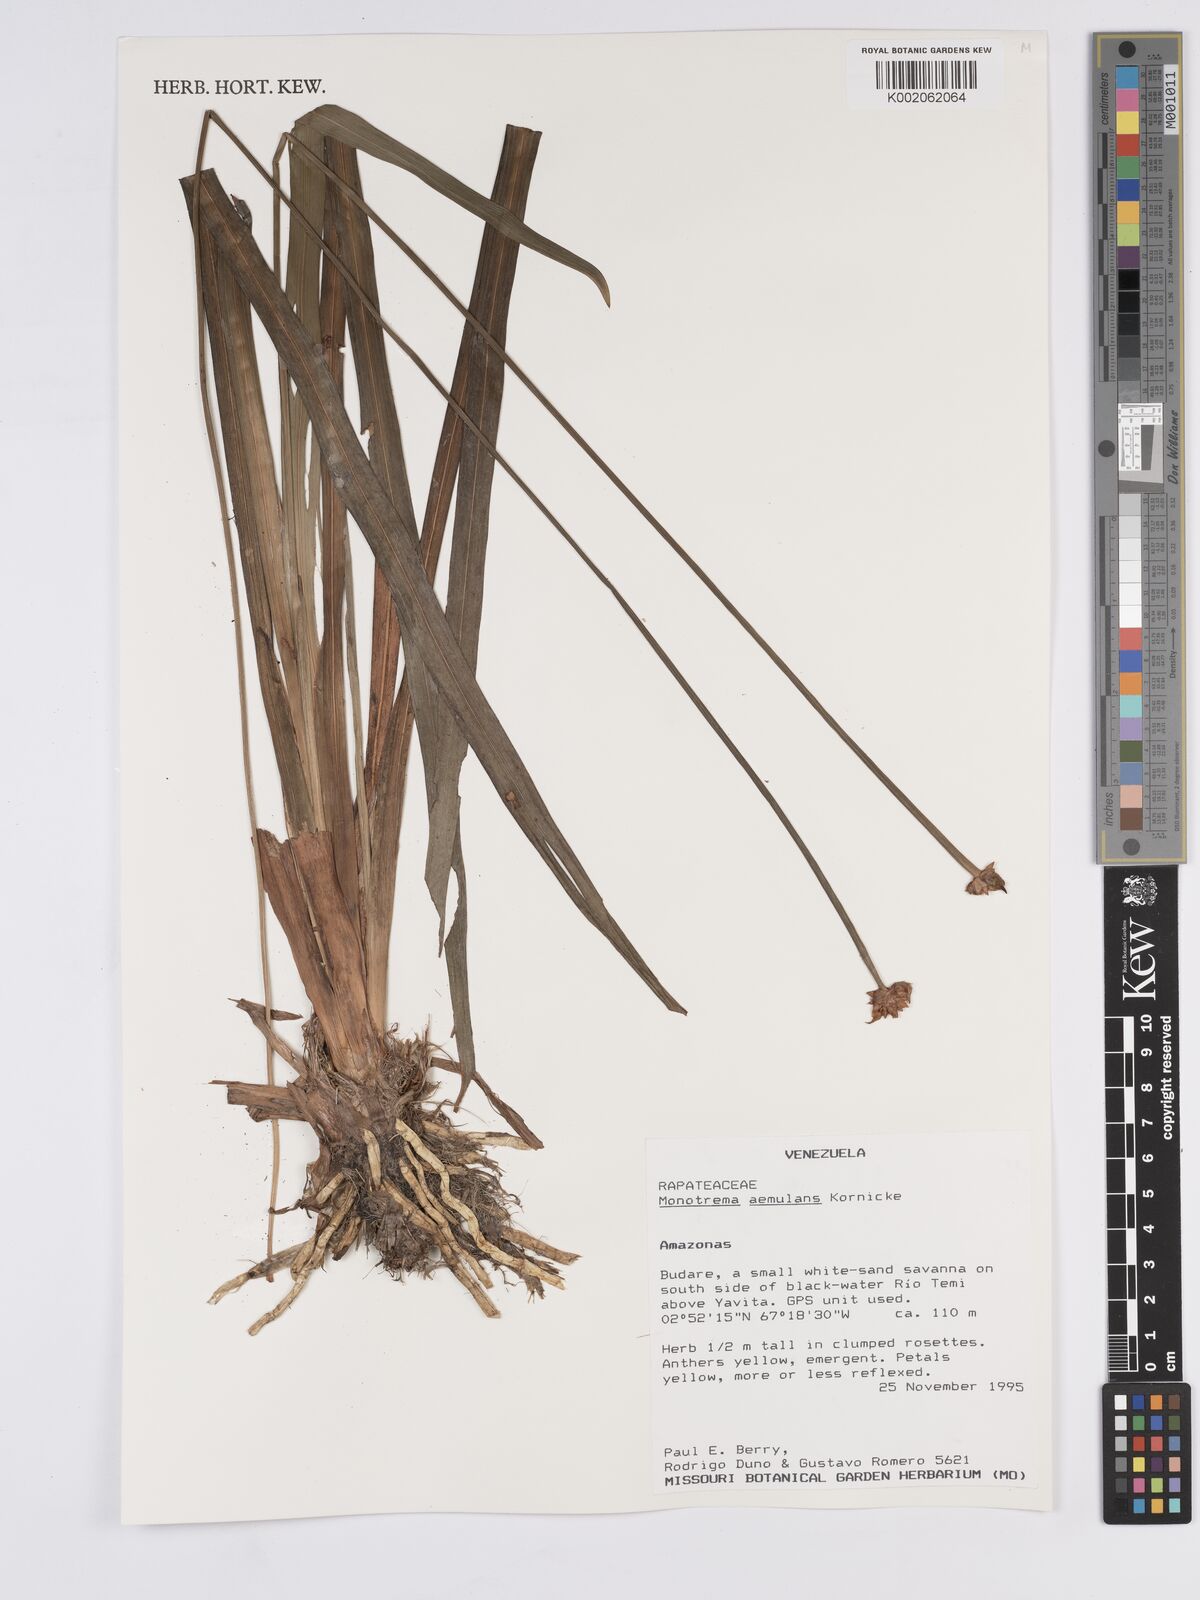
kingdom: Plantae
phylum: Tracheophyta
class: Liliopsida
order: Poales
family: Rapateaceae
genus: Monotrema
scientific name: Monotrema aemulans
